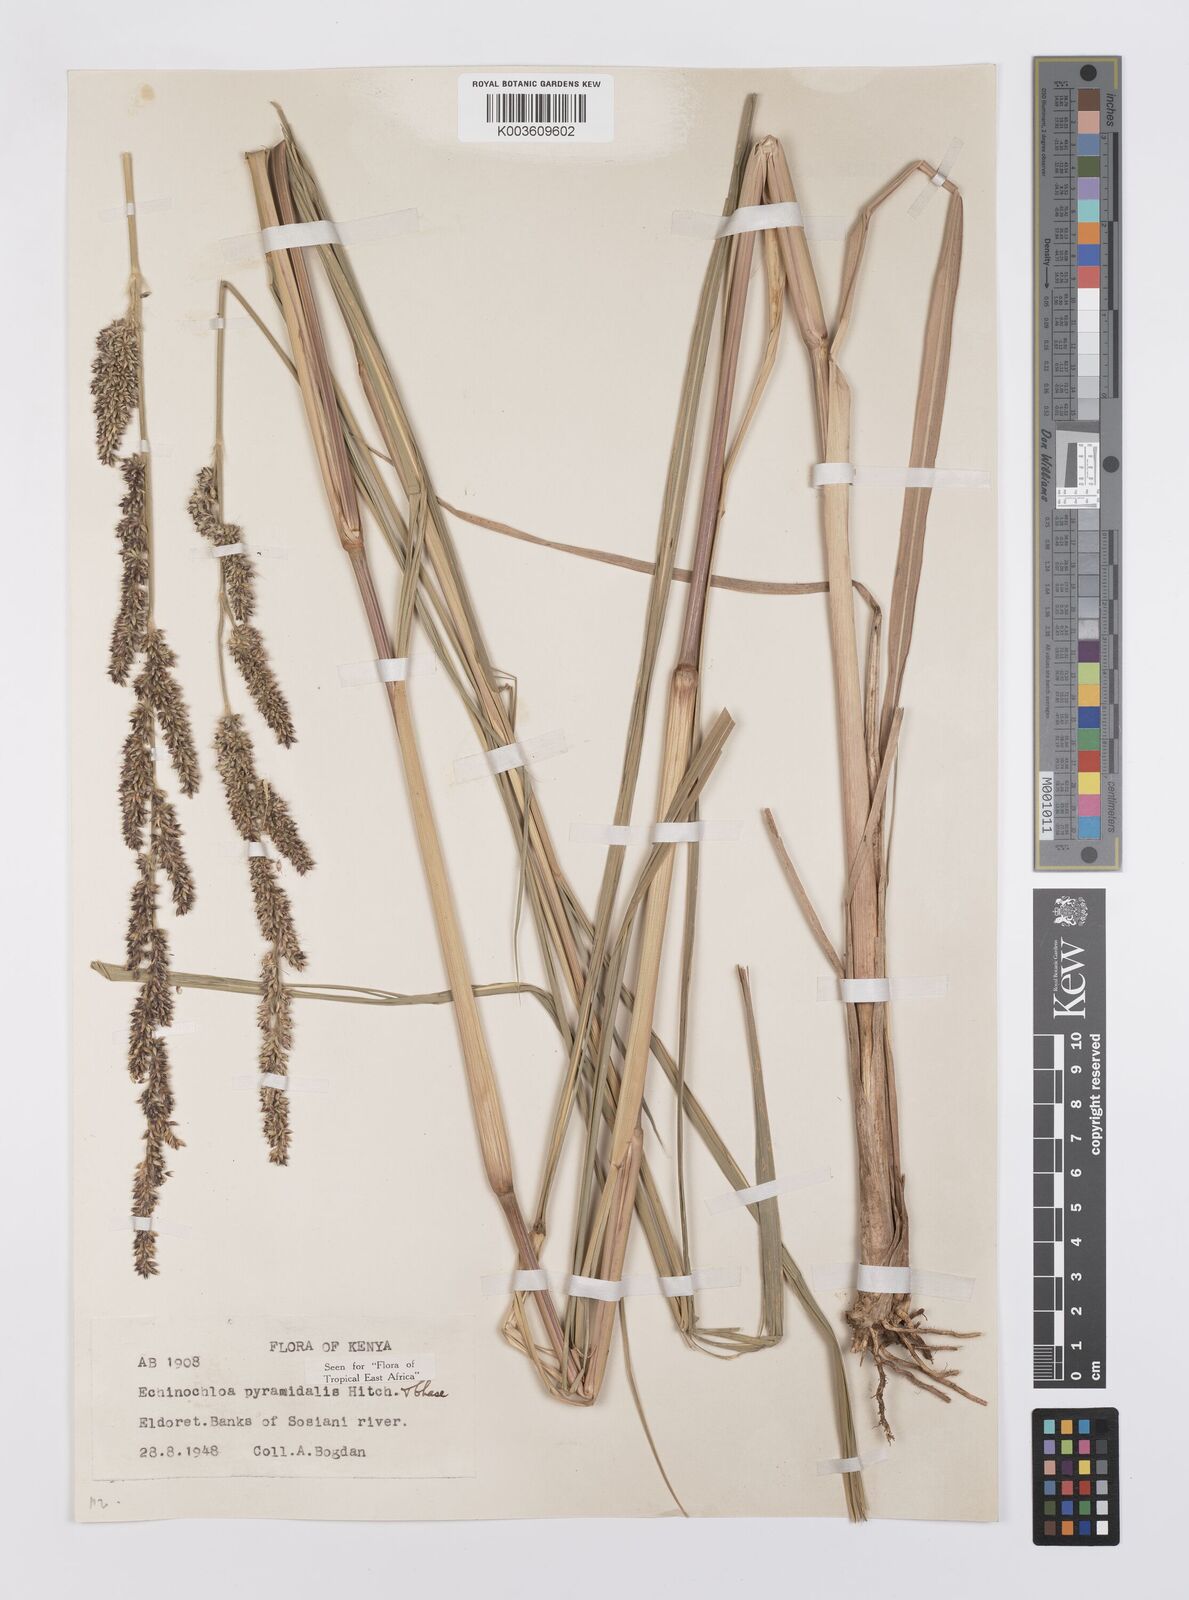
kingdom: Plantae
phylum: Tracheophyta
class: Liliopsida
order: Poales
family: Poaceae
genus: Echinochloa
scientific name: Echinochloa pyramidalis
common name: Antelope grass
